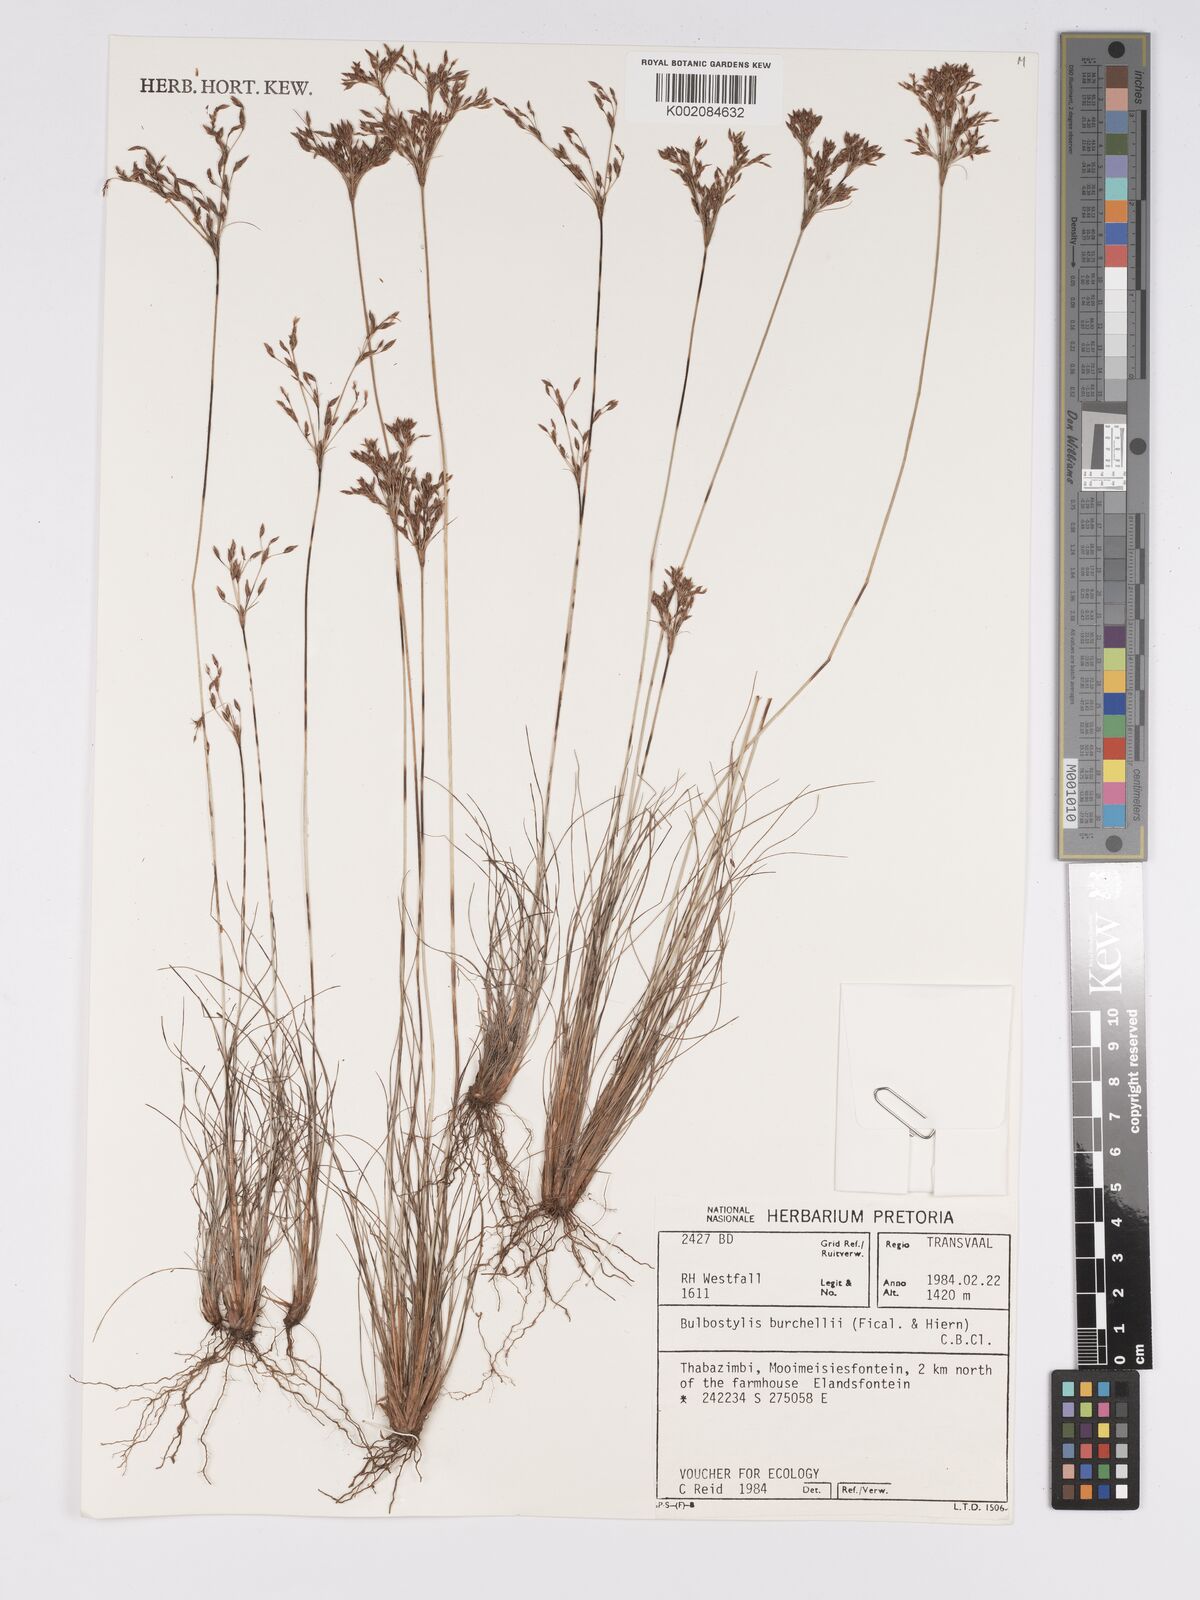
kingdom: Plantae
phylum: Tracheophyta
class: Liliopsida
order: Poales
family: Cyperaceae
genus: Bulbostylis
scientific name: Bulbostylis
